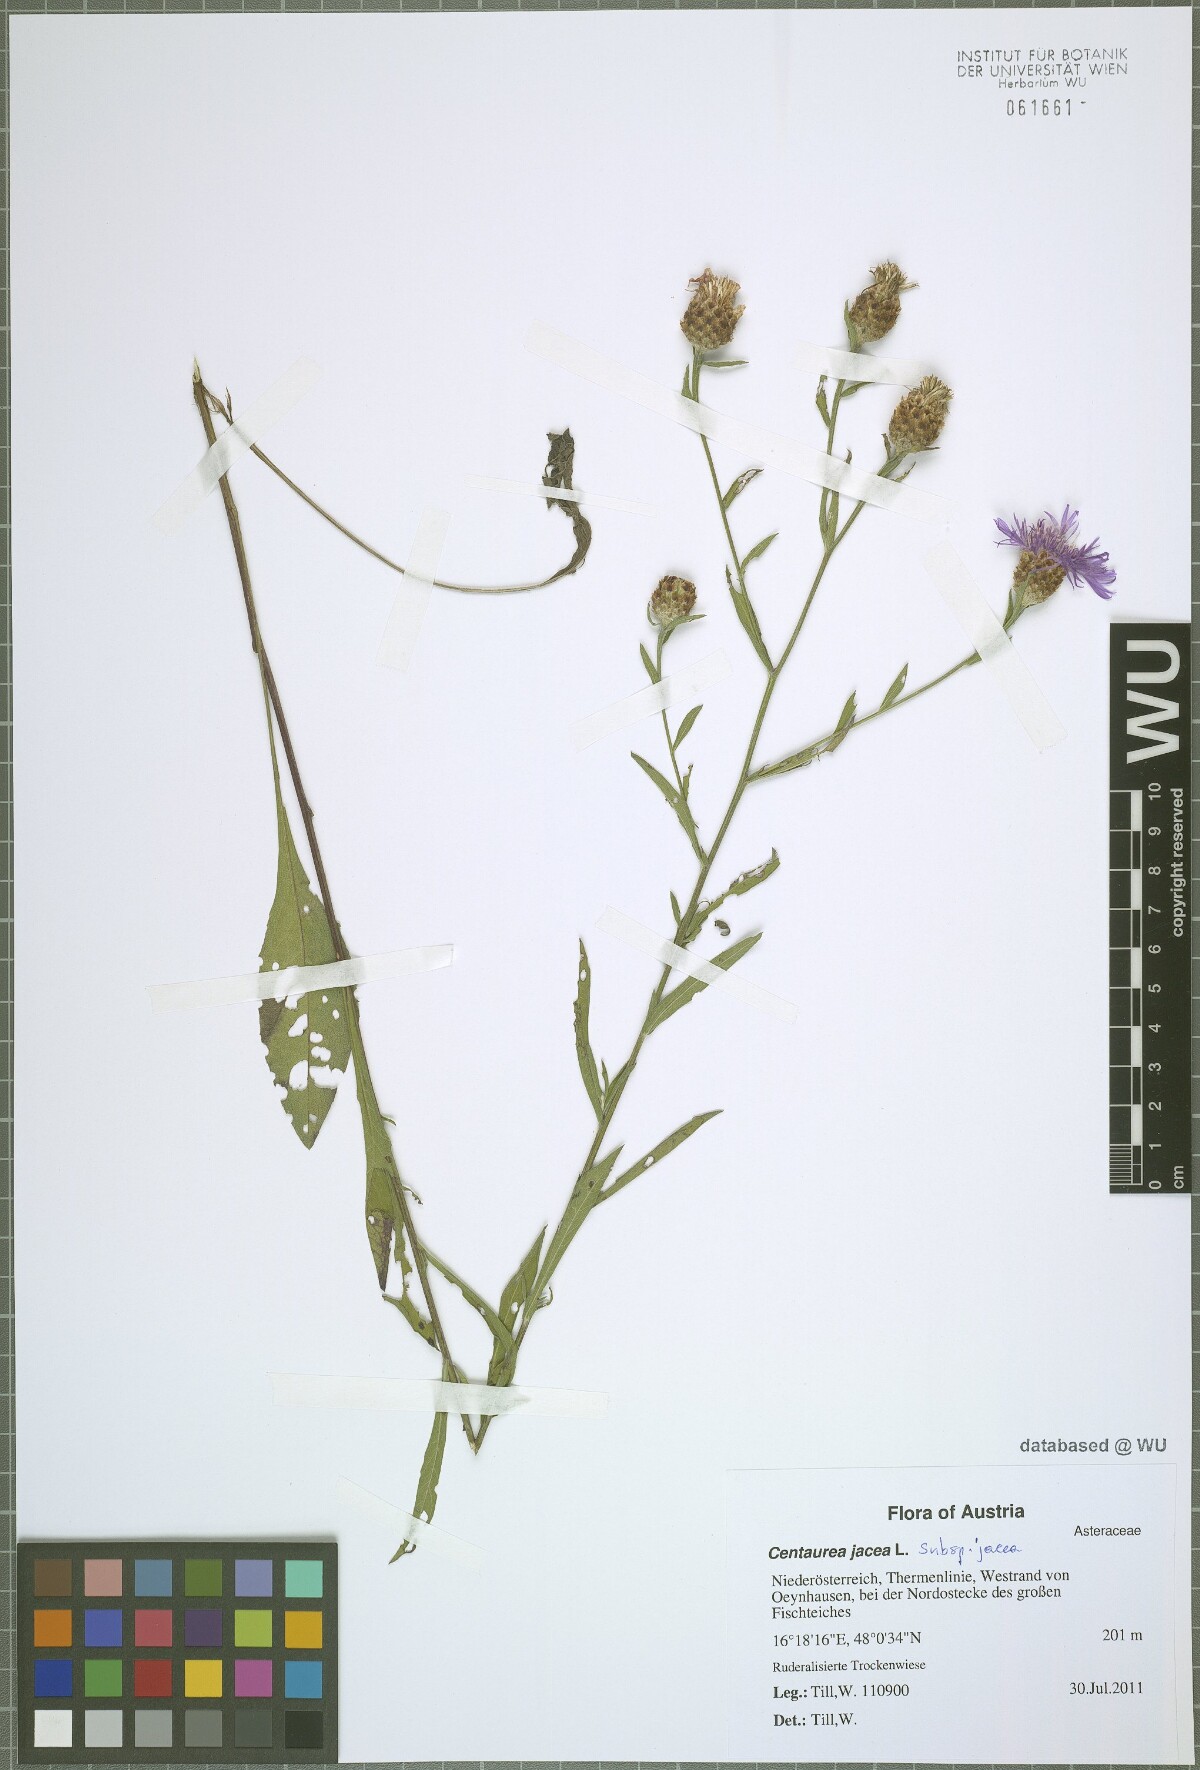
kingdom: Plantae
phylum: Tracheophyta
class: Magnoliopsida
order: Asterales
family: Asteraceae
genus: Centaurea
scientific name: Centaurea jacea
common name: Brown knapweed
